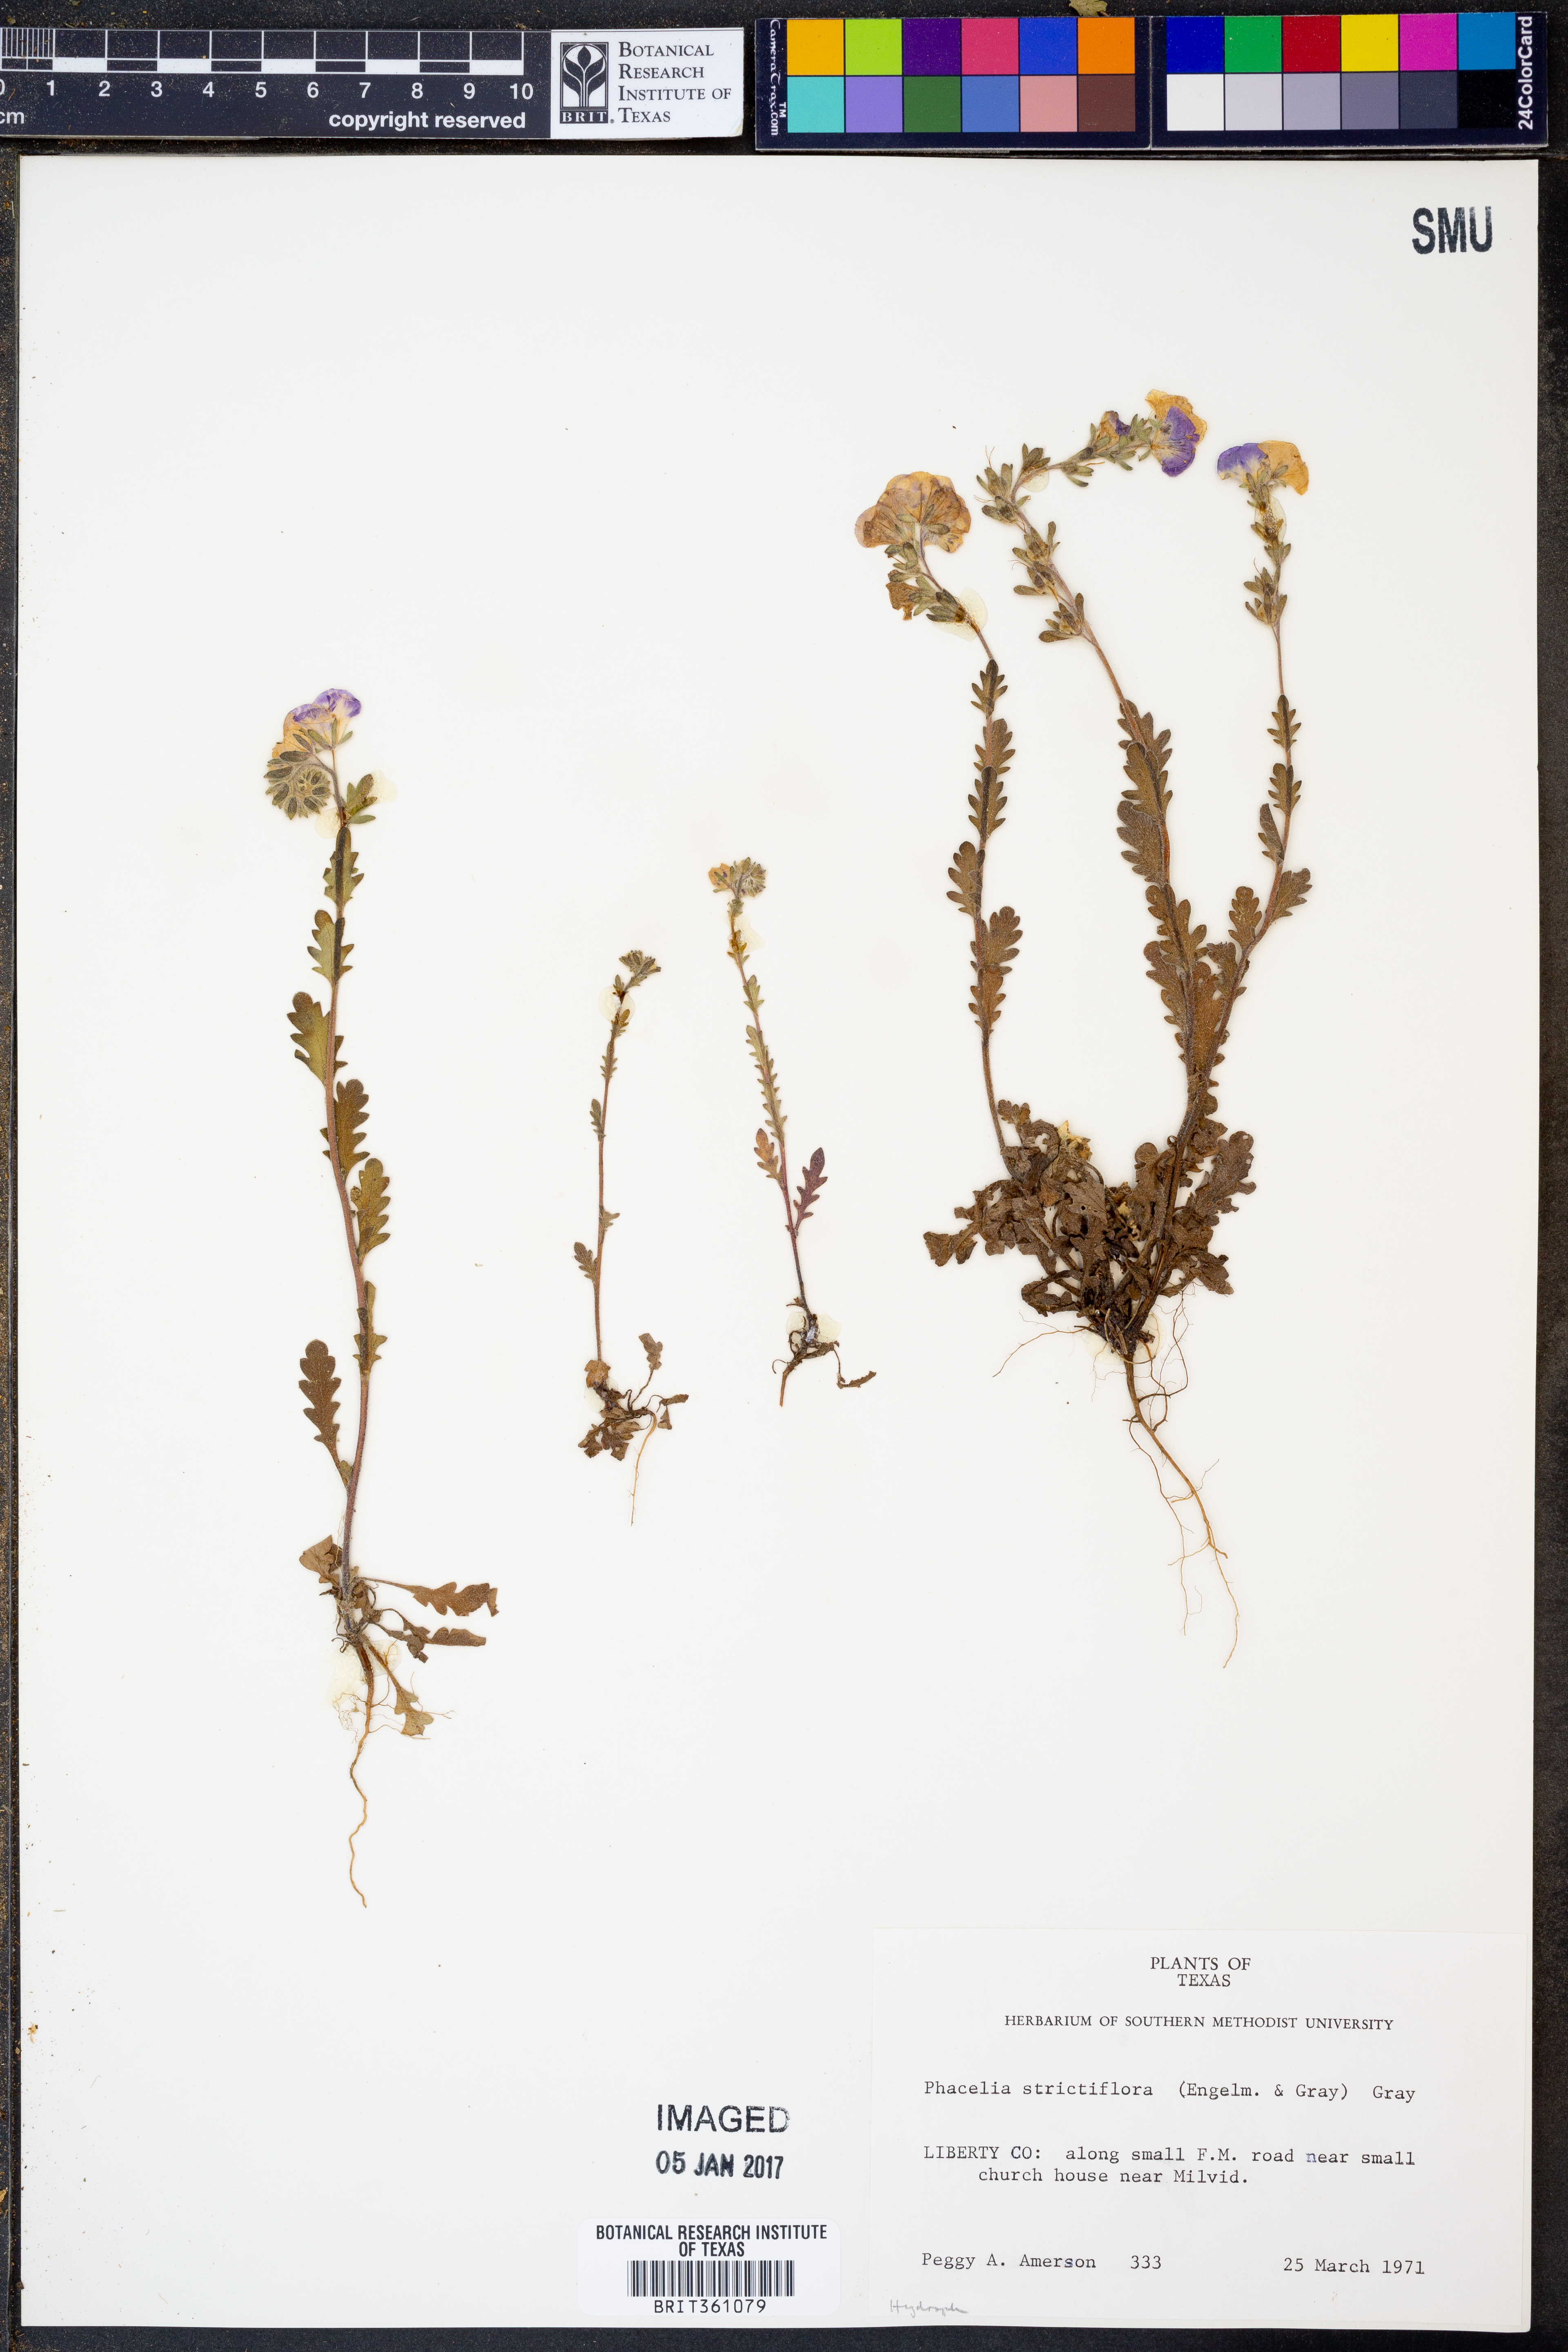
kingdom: Plantae
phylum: Tracheophyta
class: Magnoliopsida
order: Boraginales
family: Hydrophyllaceae
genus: Phacelia
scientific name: Phacelia strictiflora
